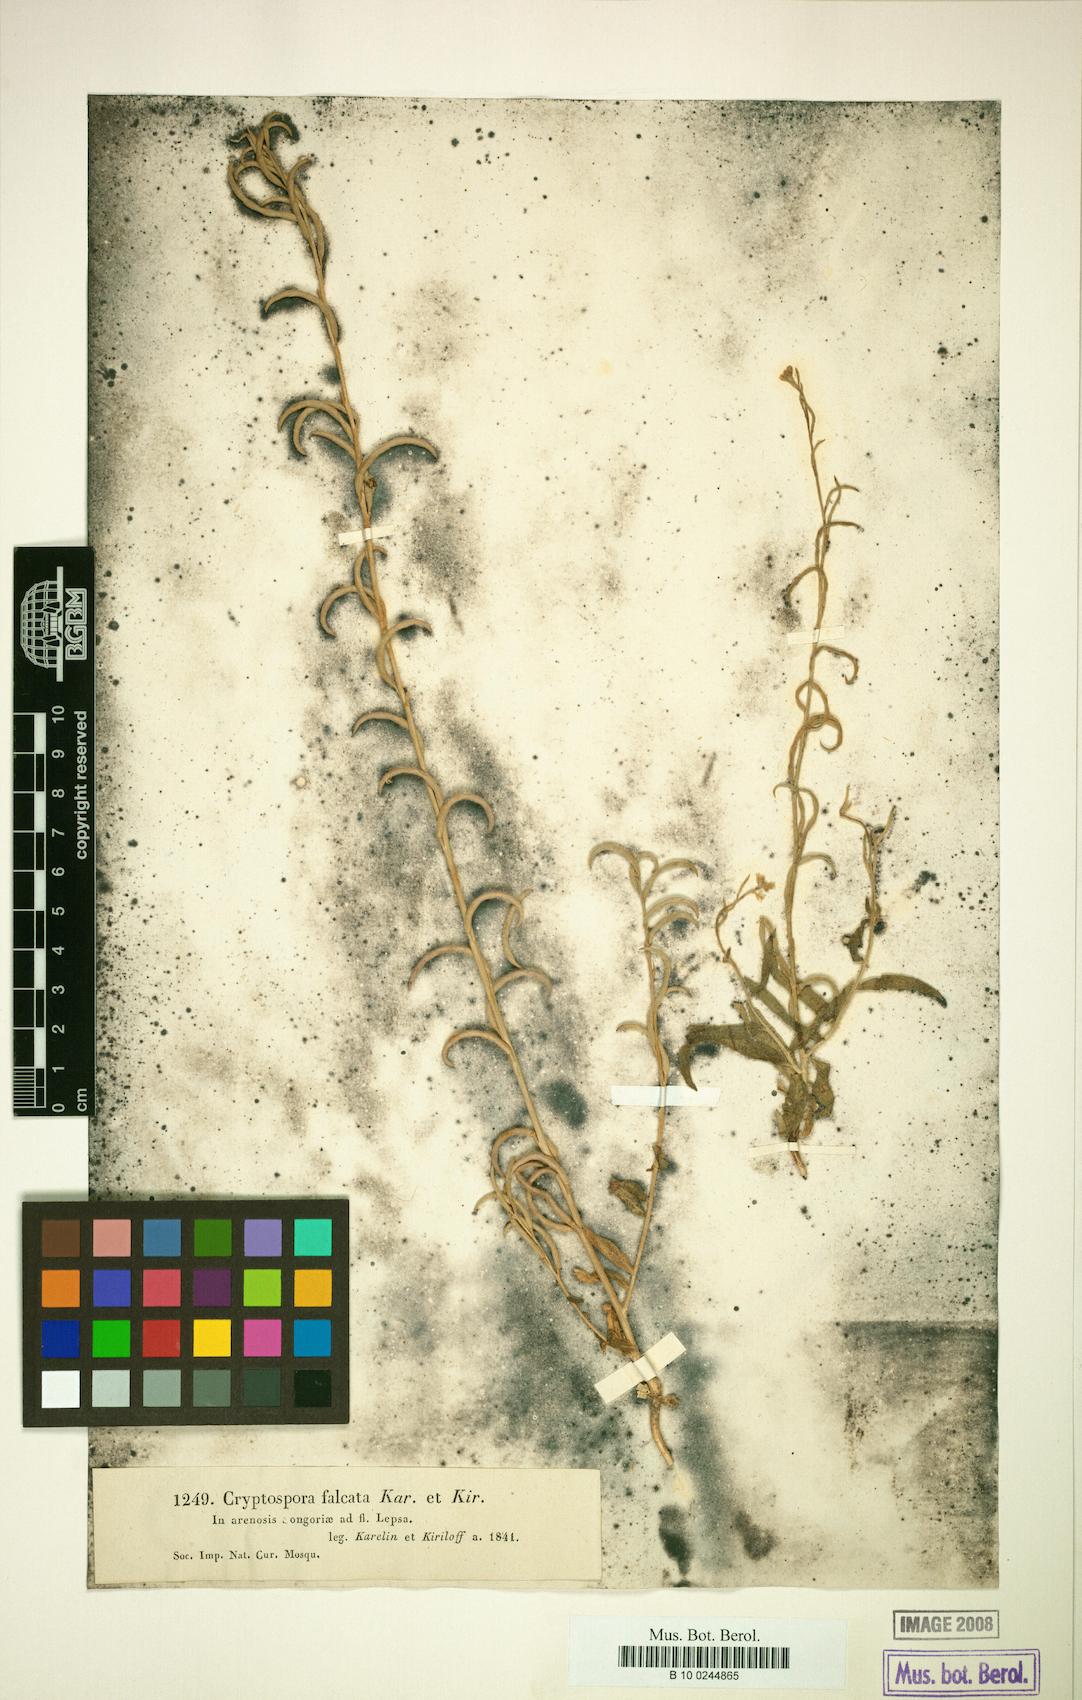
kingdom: Plantae
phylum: Tracheophyta
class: Magnoliopsida
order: Brassicales
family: Brassicaceae
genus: Cryptospora
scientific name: Cryptospora falcata
